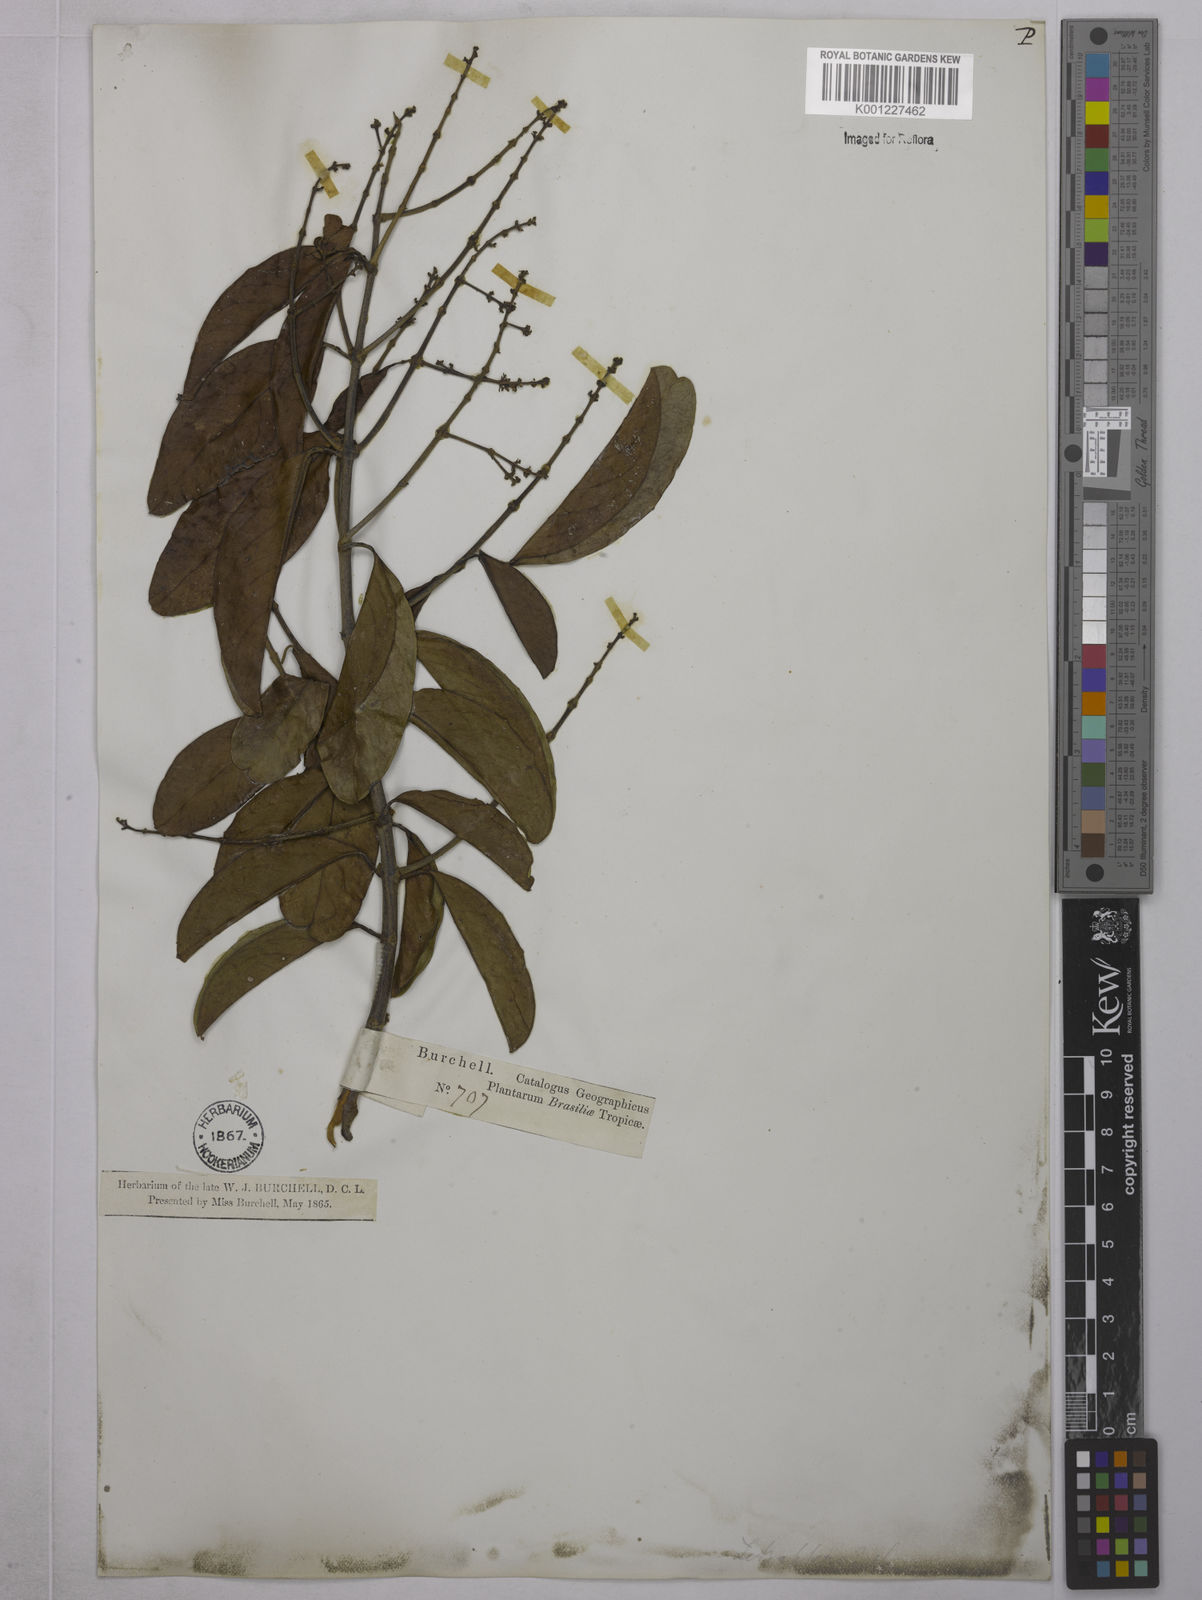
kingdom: Plantae
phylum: Tracheophyta
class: Magnoliopsida
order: Malpighiales
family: Malpighiaceae
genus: Tetrapterys
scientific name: Tetrapterys
